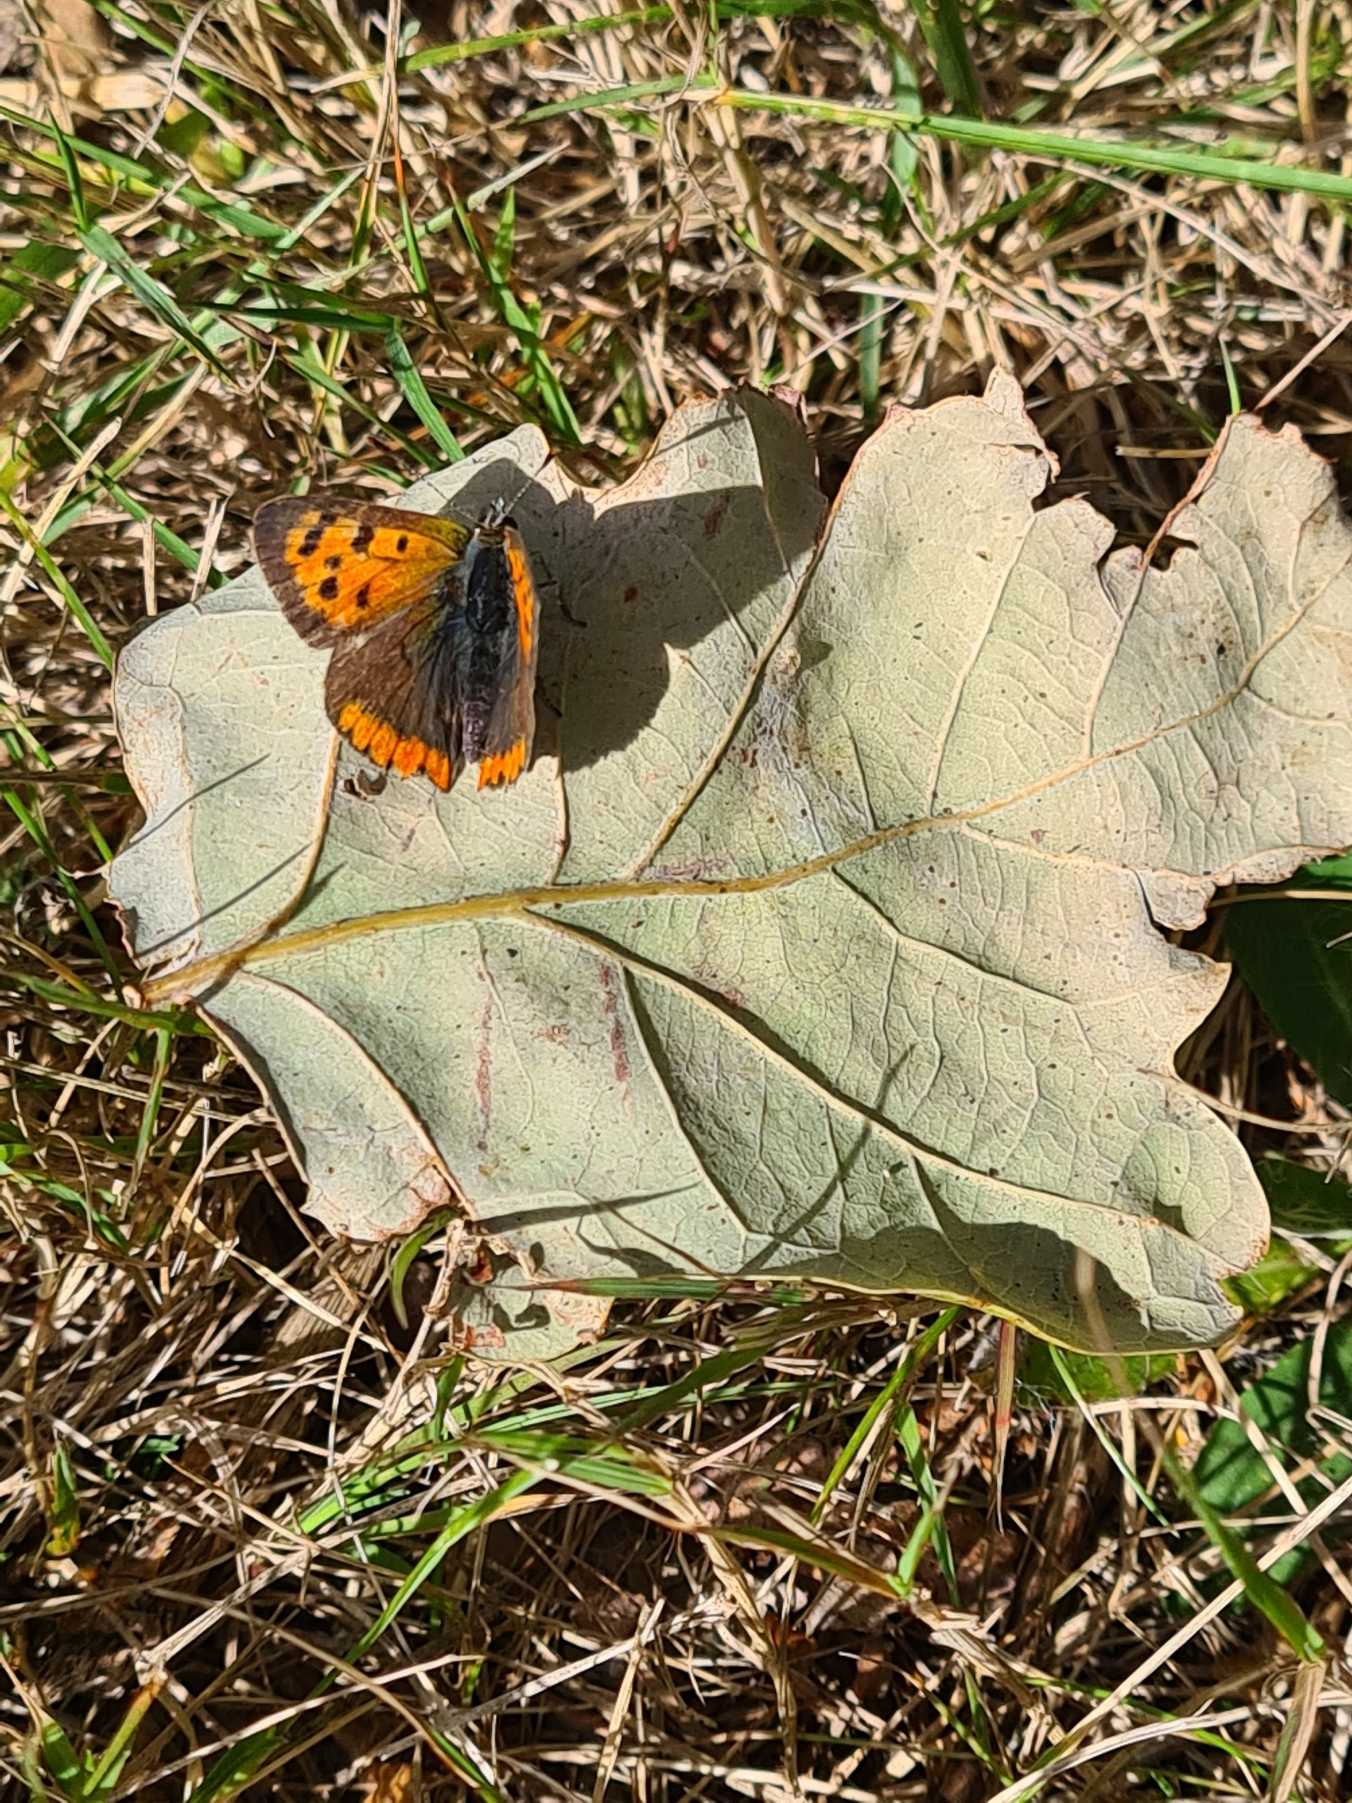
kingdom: Animalia
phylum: Arthropoda
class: Insecta
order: Lepidoptera
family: Lycaenidae
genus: Lycaena
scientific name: Lycaena phlaeas
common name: Lille ildfugl
